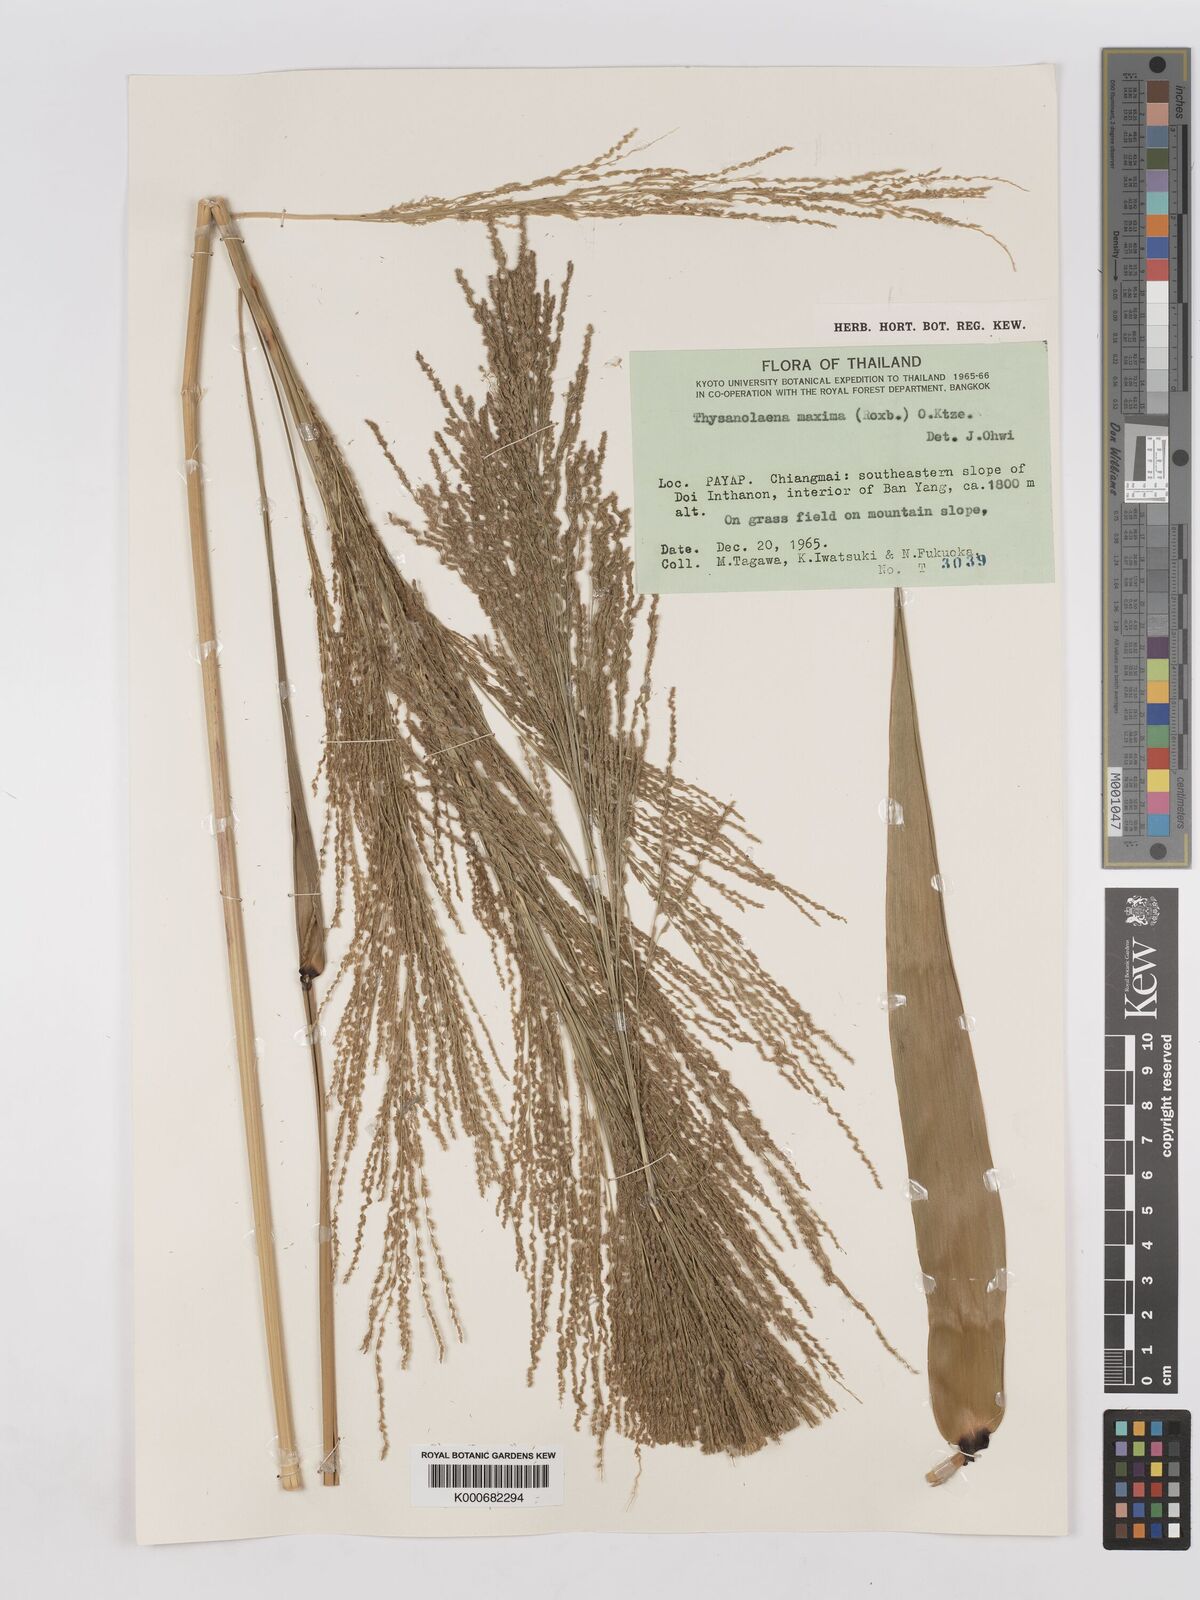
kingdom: Plantae
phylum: Tracheophyta
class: Liliopsida
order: Poales
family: Poaceae
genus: Thysanolaena
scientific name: Thysanolaena latifolia
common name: Tiger grass
